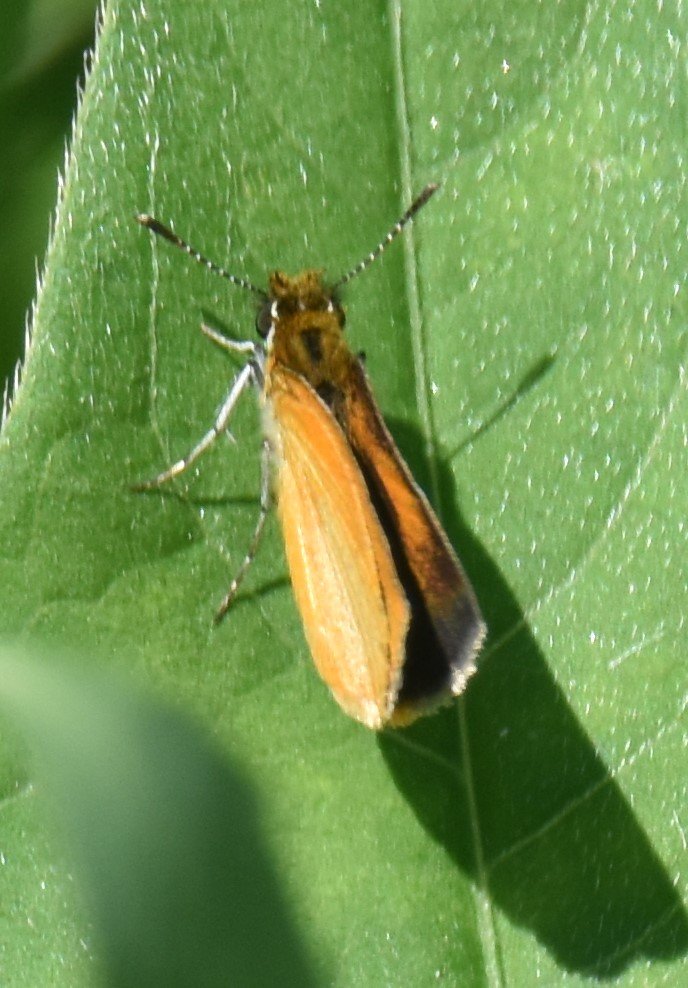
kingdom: Animalia
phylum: Arthropoda
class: Insecta
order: Lepidoptera
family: Hesperiidae
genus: Ancyloxypha
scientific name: Ancyloxypha numitor
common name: Least Skipper
